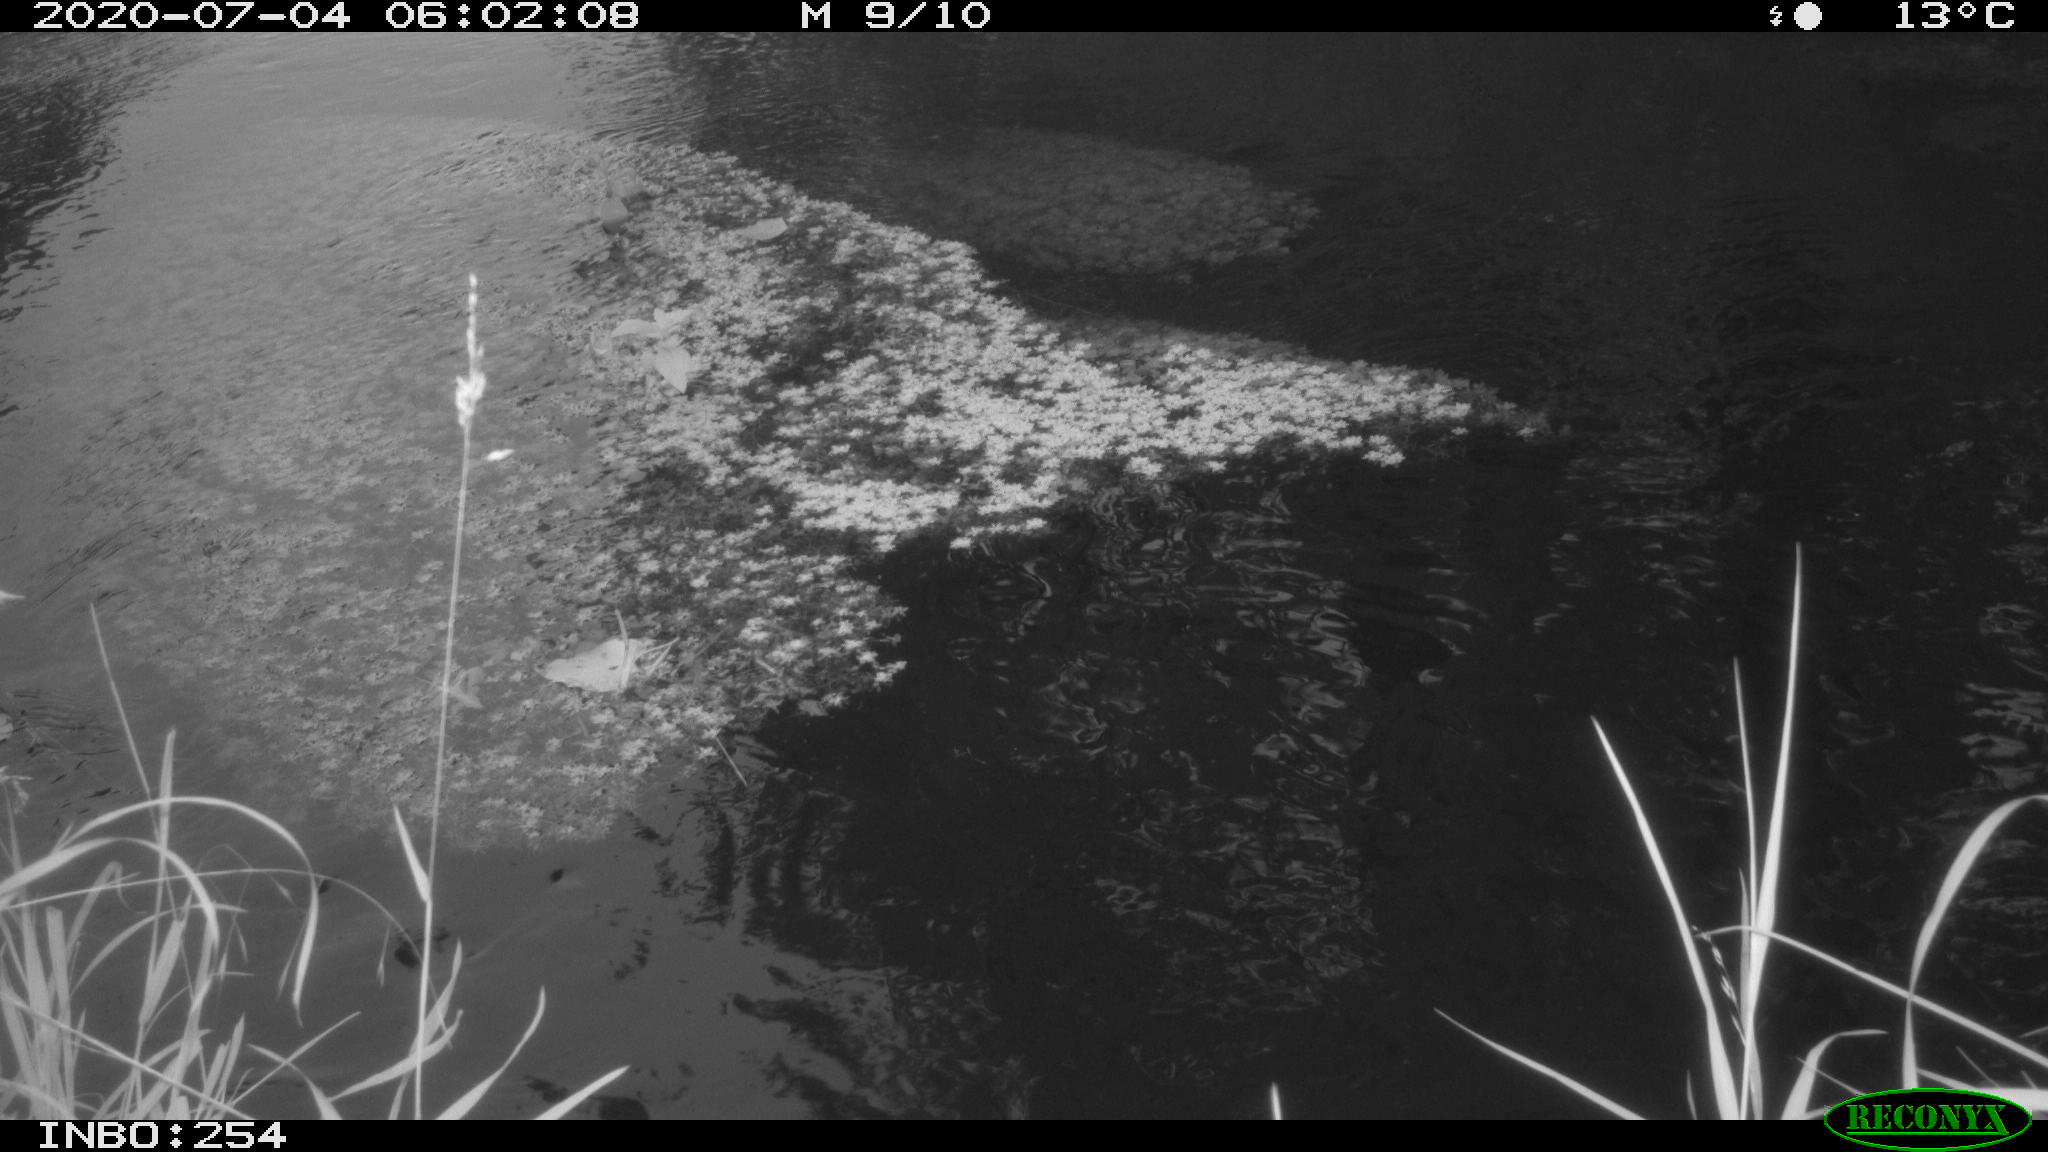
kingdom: Animalia
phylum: Chordata
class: Aves
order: Gruiformes
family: Rallidae
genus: Gallinula
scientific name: Gallinula chloropus
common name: Common moorhen
